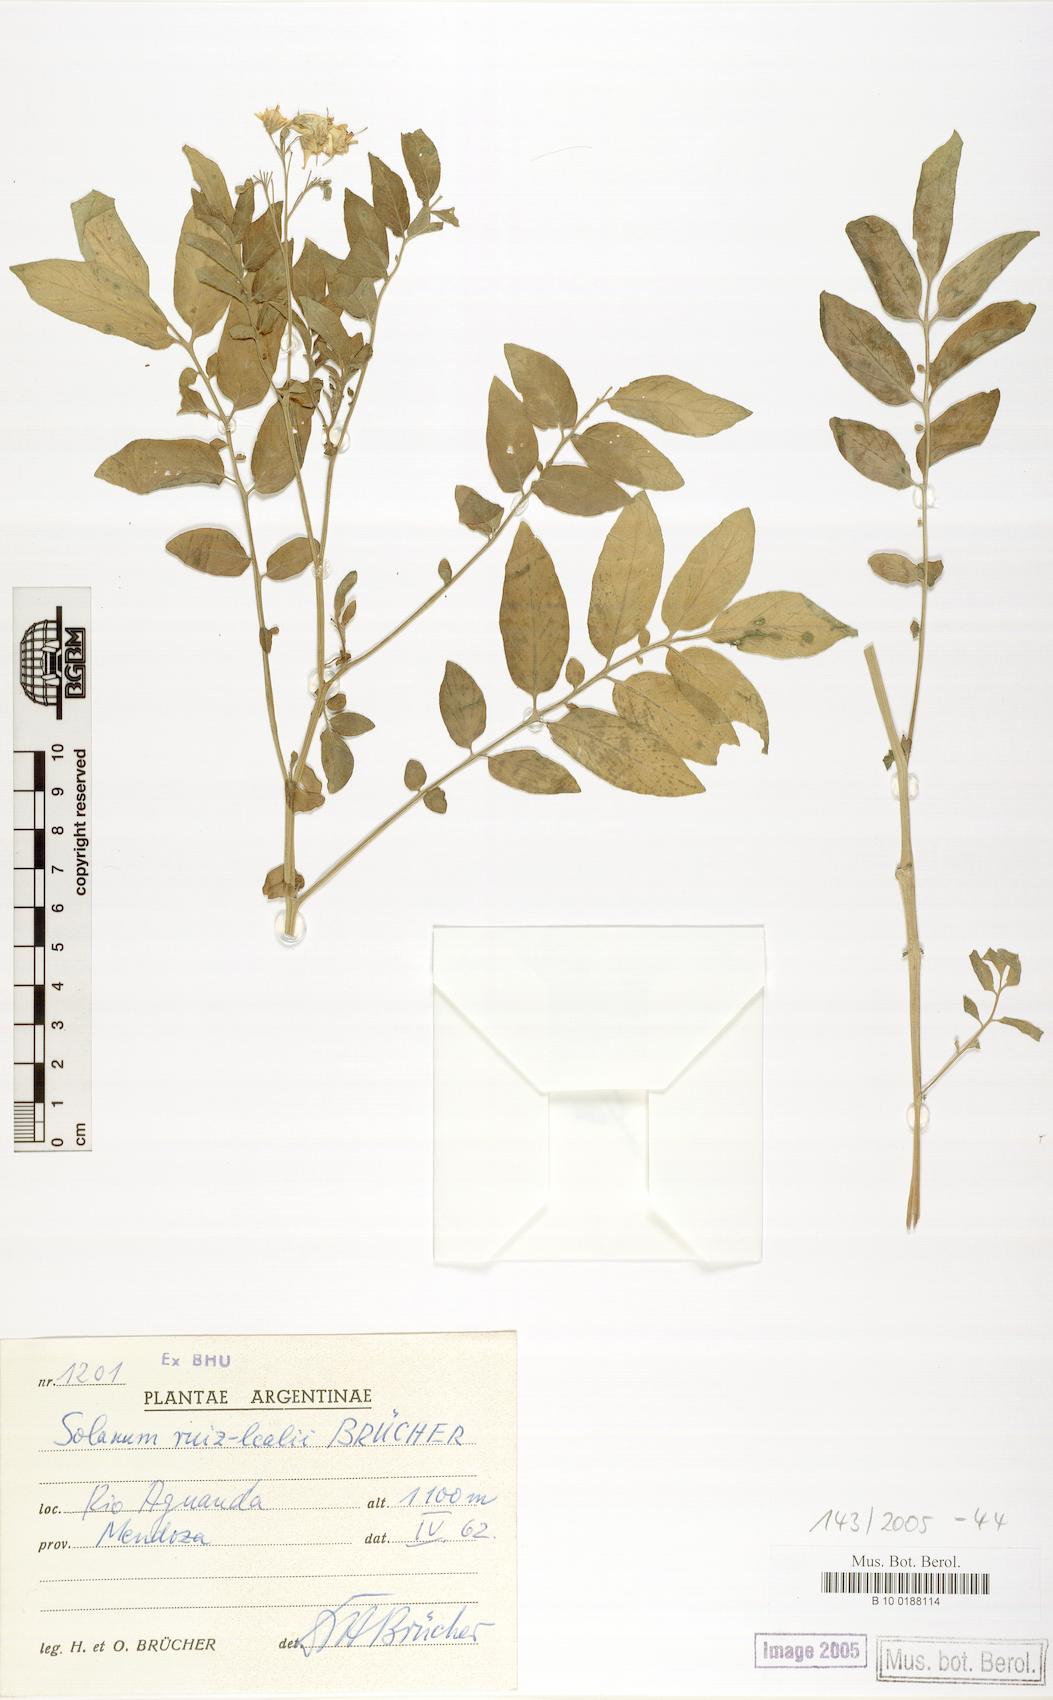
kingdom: Plantae
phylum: Tracheophyta
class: Magnoliopsida
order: Solanales
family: Solanaceae
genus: Solanum
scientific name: Solanum kurtzianum
